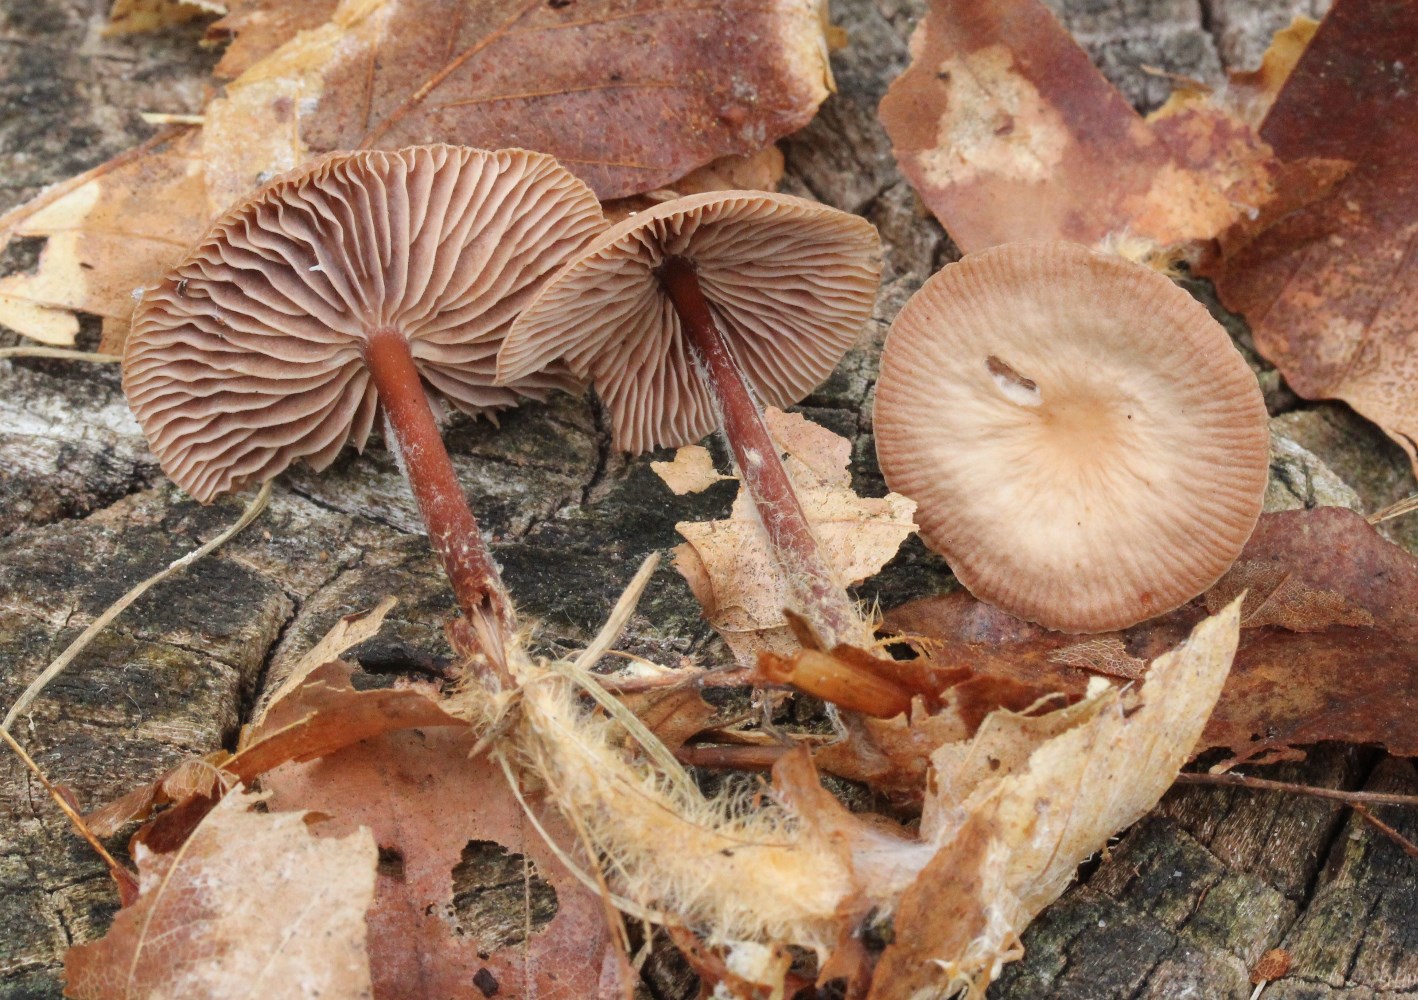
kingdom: Fungi
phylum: Basidiomycota
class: Agaricomycetes
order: Agaricales
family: Omphalotaceae
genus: Gymnopus
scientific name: Gymnopus fagiphilus
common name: bøgeløv-fladhat
